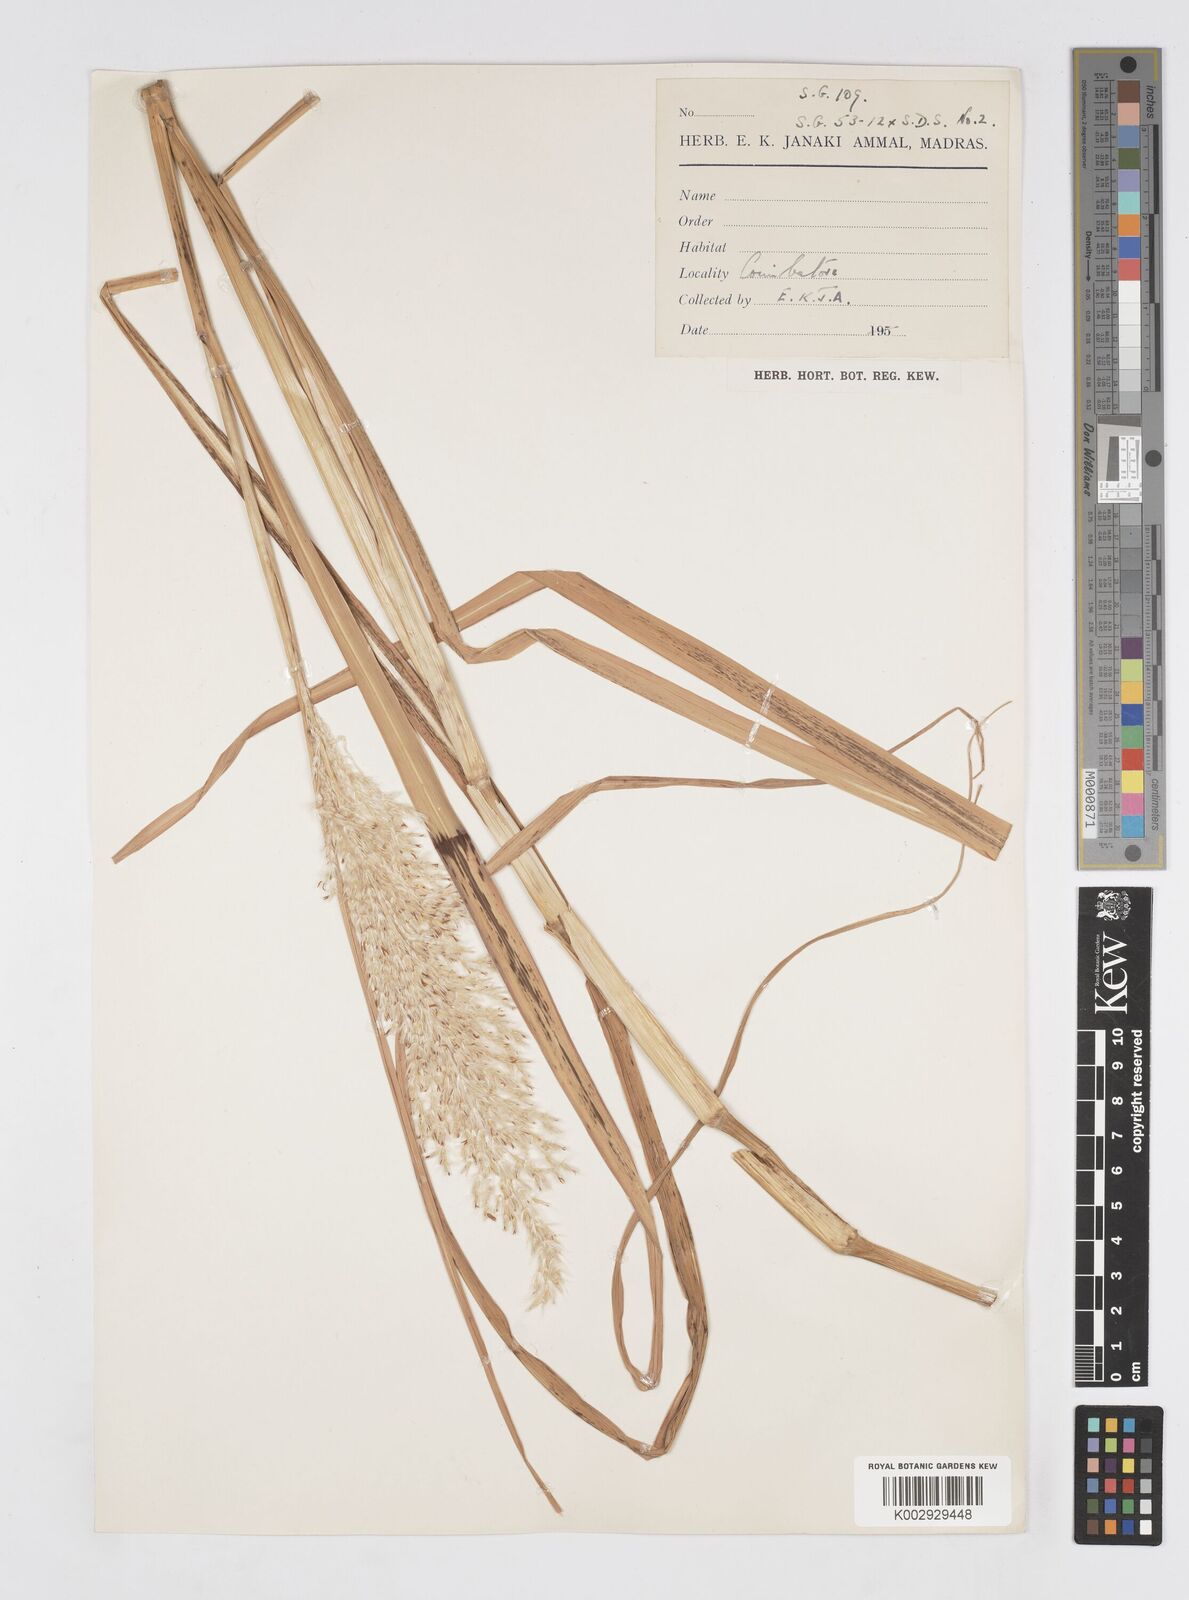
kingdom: Plantae
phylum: Tracheophyta
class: Liliopsida
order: Poales
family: Poaceae
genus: Saccharum
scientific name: Saccharum
